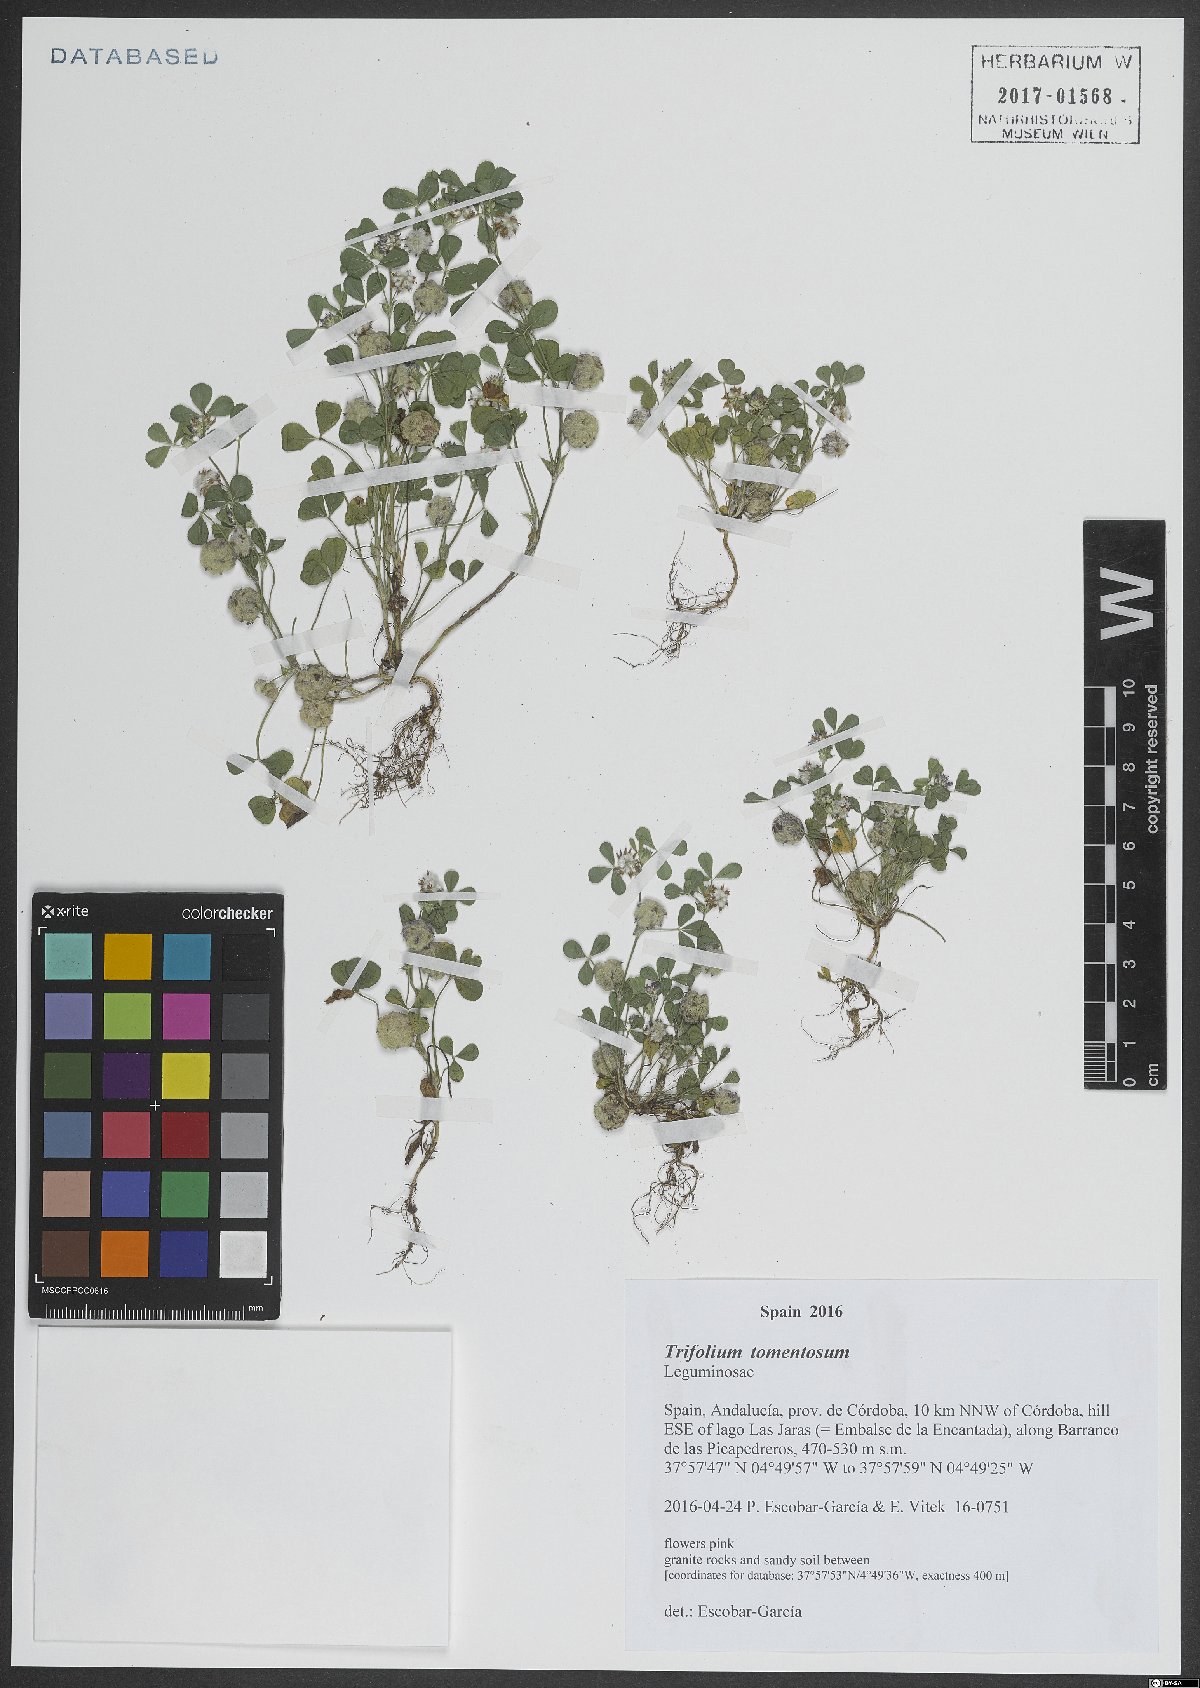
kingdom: Plantae
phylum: Tracheophyta
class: Magnoliopsida
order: Fabales
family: Fabaceae
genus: Trifolium
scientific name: Trifolium tomentosum
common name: Woolly clover
